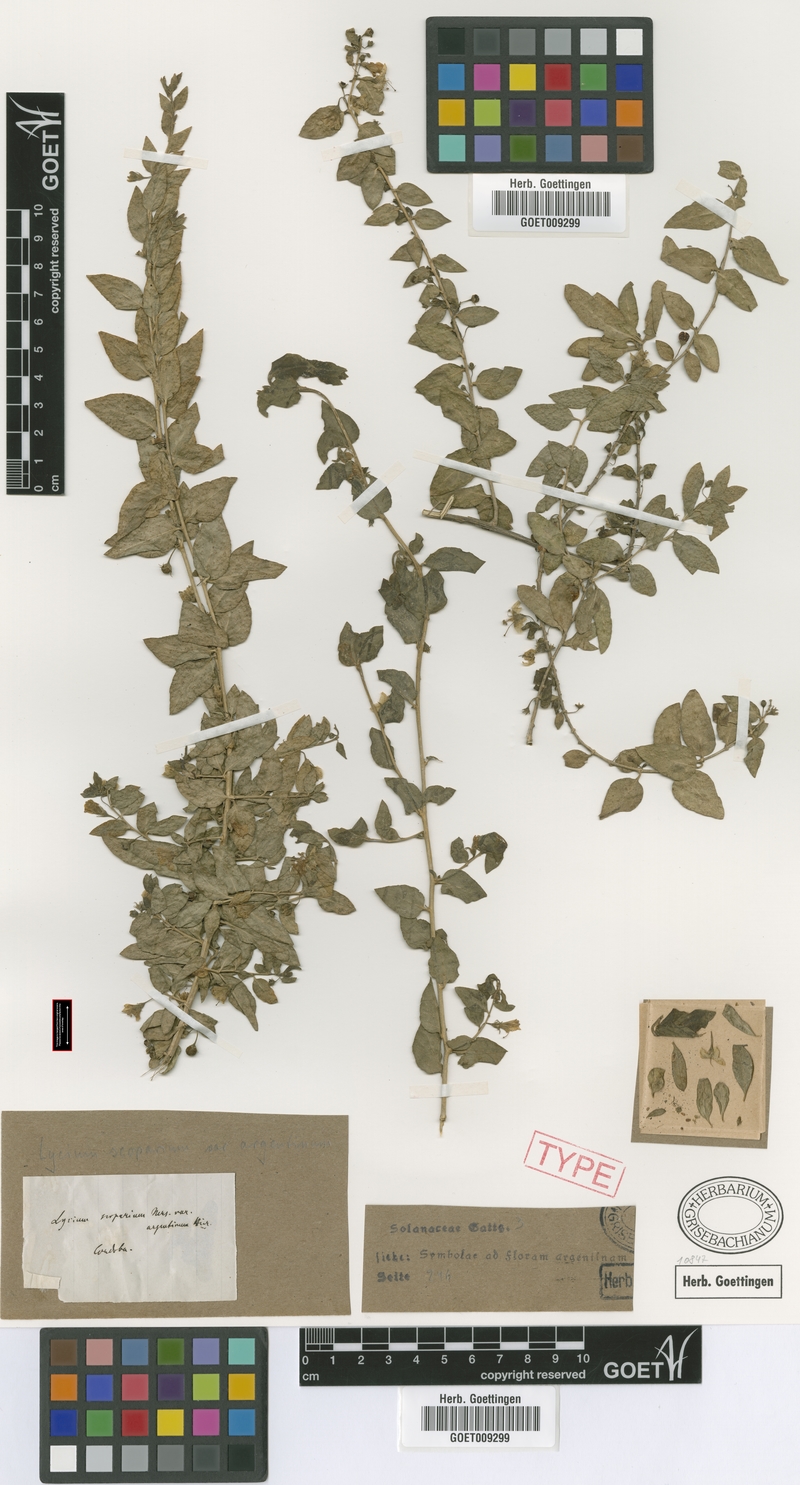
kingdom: Plantae
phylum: Tracheophyta
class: Magnoliopsida
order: Solanales
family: Solanaceae
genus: Lycium
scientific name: Lycium ciliatum
